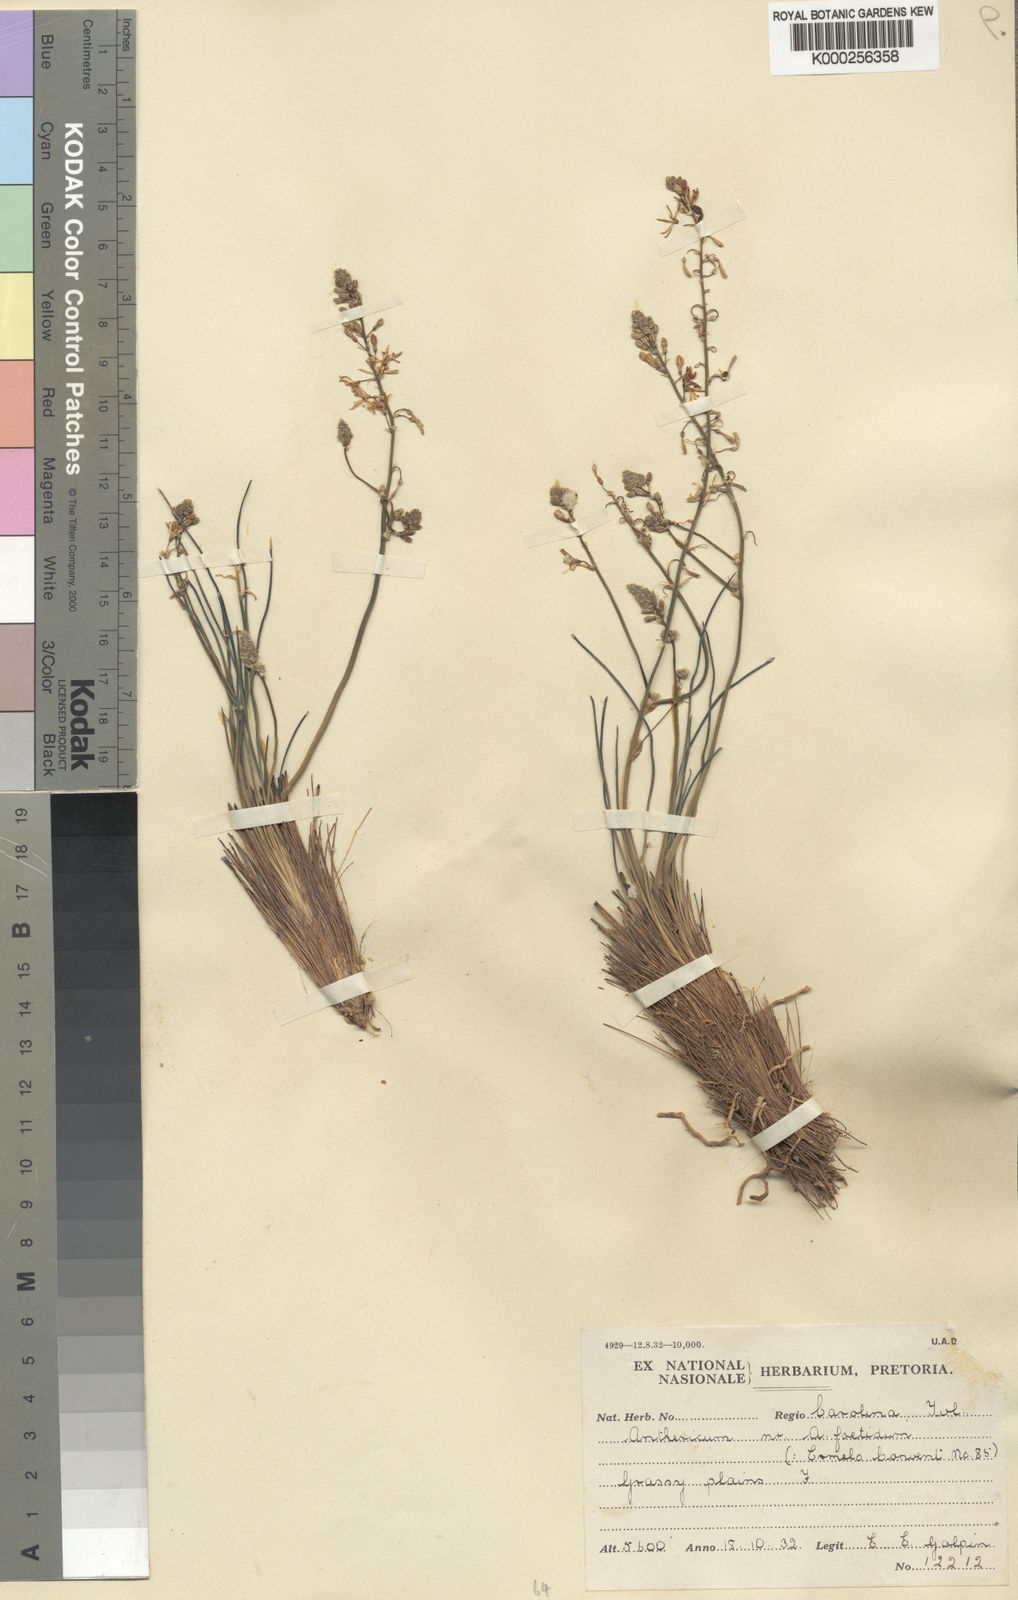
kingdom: Plantae
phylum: Tracheophyta
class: Liliopsida
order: Asparagales
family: Asphodelaceae
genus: Trachyandra
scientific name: Trachyandra asperata
